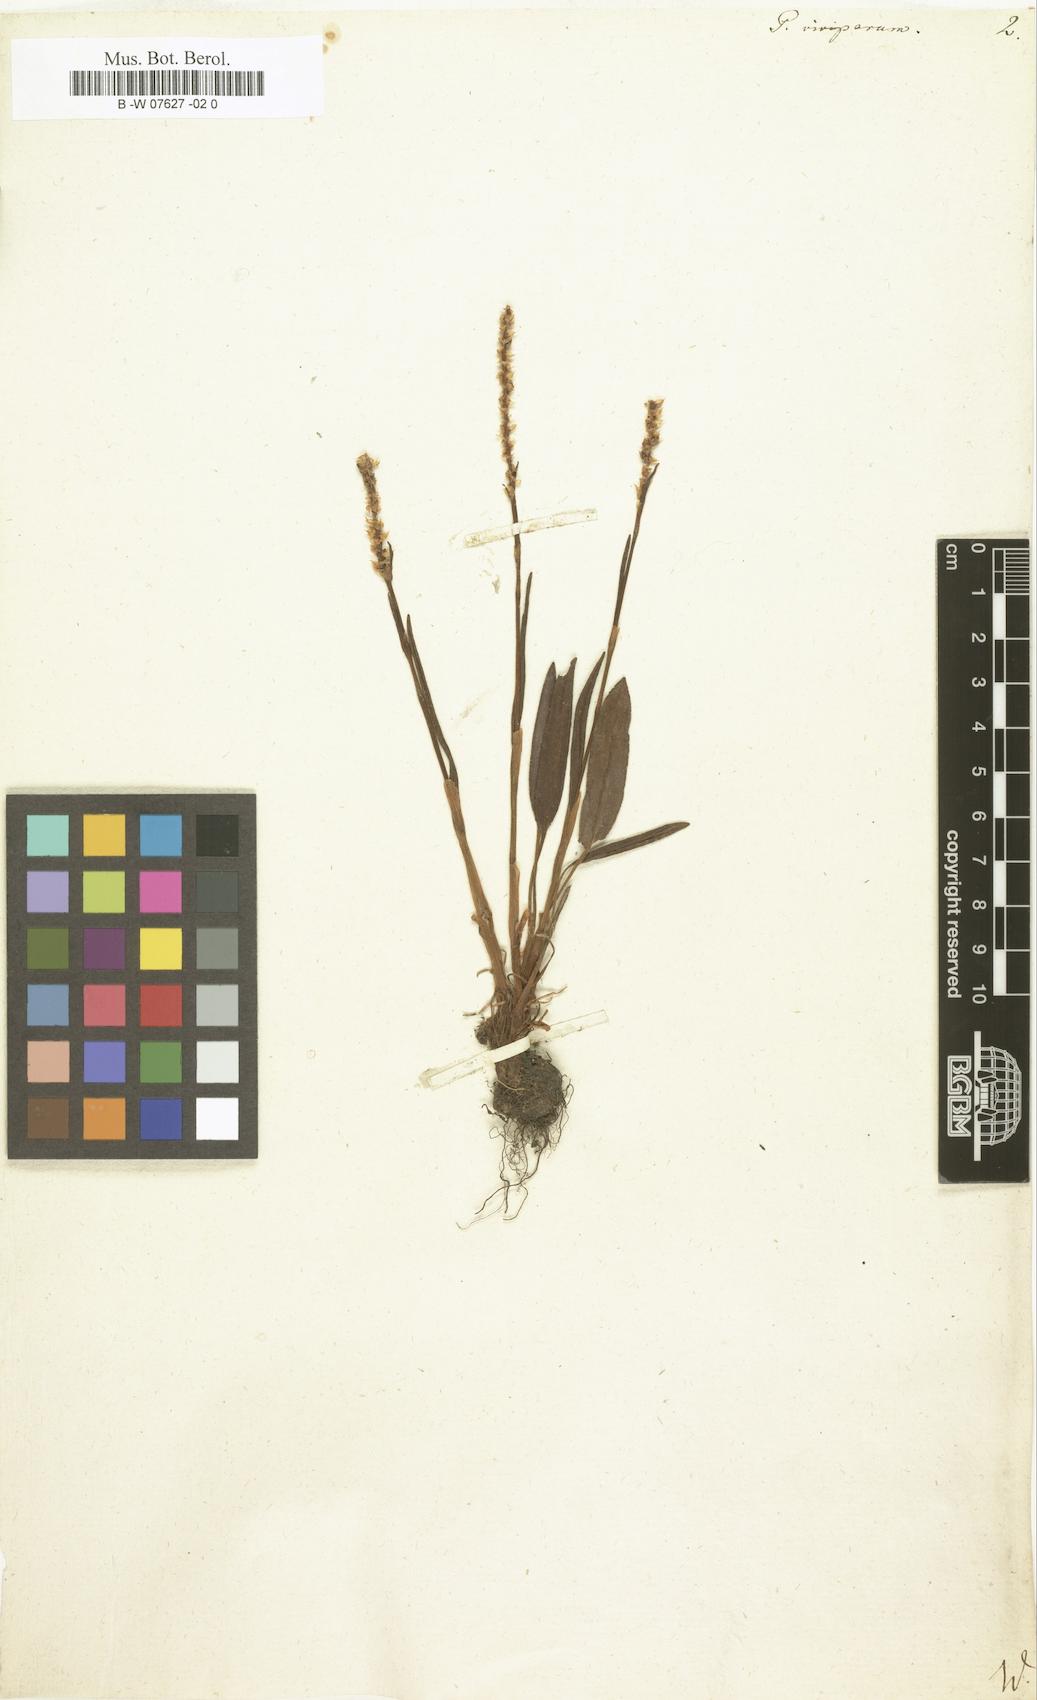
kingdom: Plantae
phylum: Tracheophyta
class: Magnoliopsida
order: Caryophyllales
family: Polygonaceae
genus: Bistorta
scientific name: Bistorta vivipara
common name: Alpine bistort
